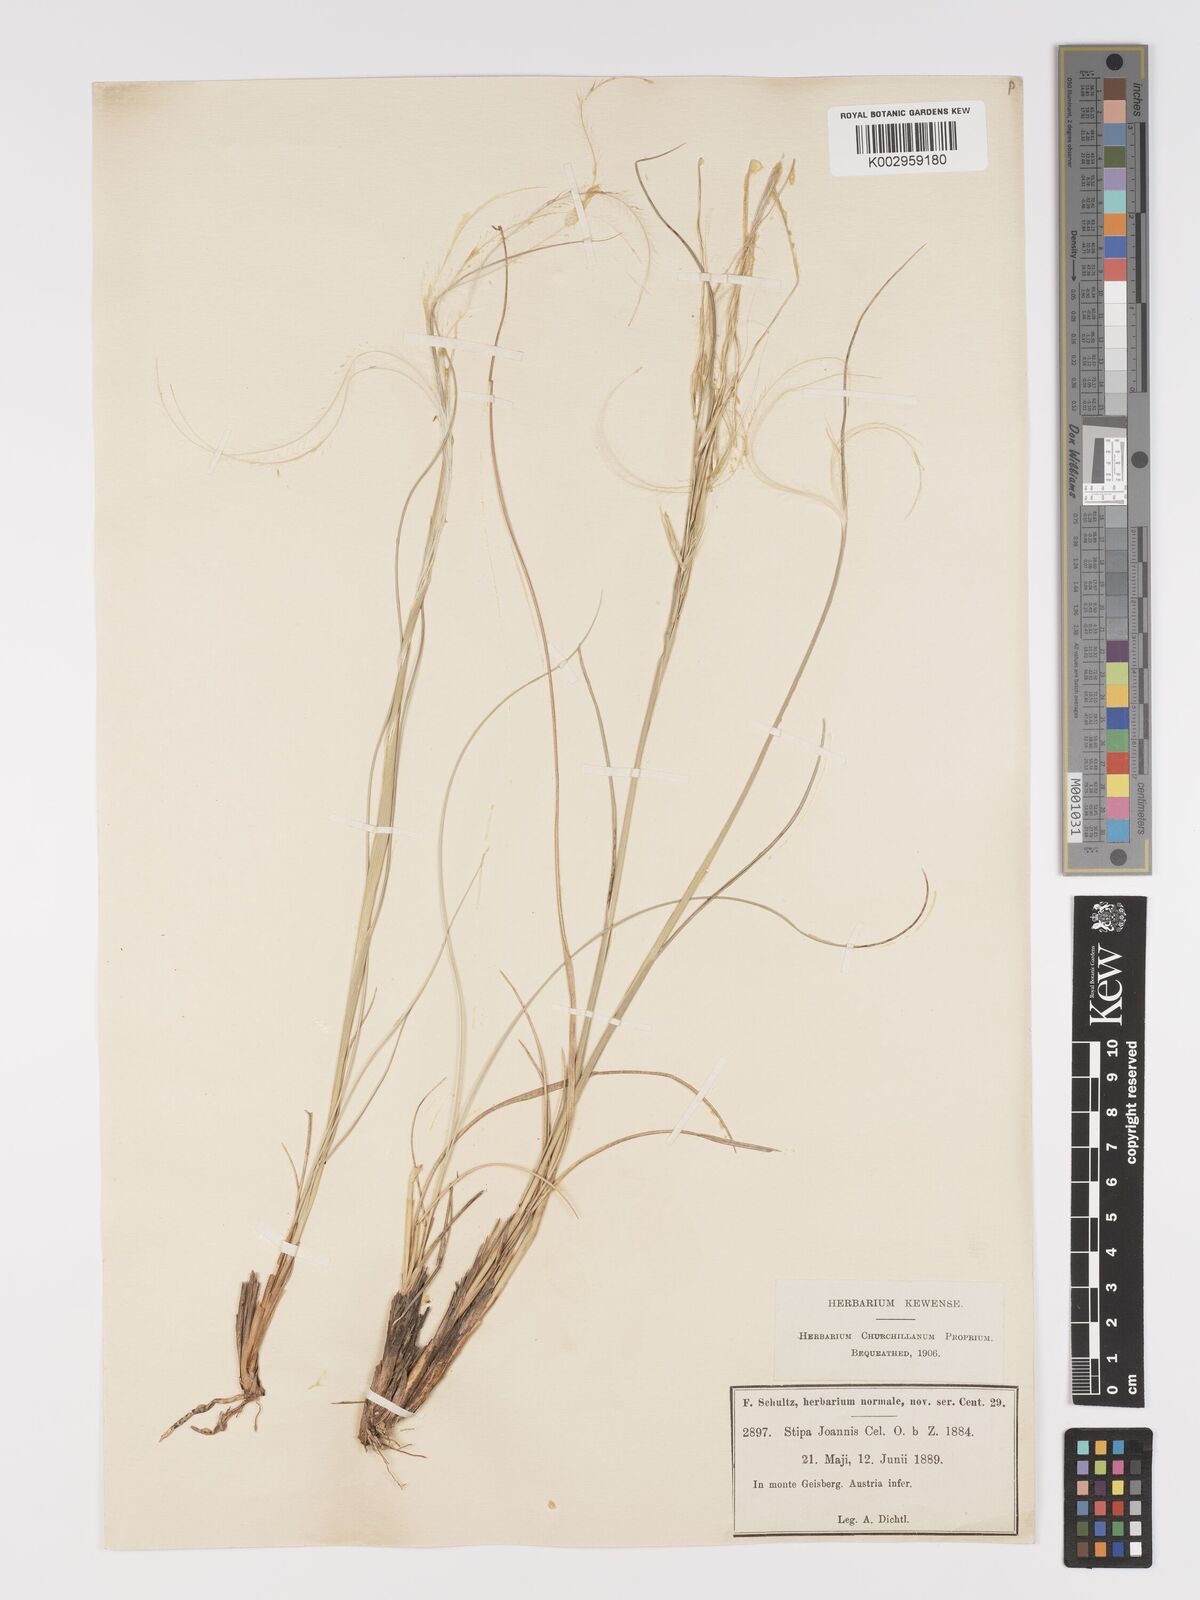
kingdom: Plantae
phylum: Tracheophyta
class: Liliopsida
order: Poales
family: Poaceae
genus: Stipa
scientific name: Stipa pennata
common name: European feather grass
